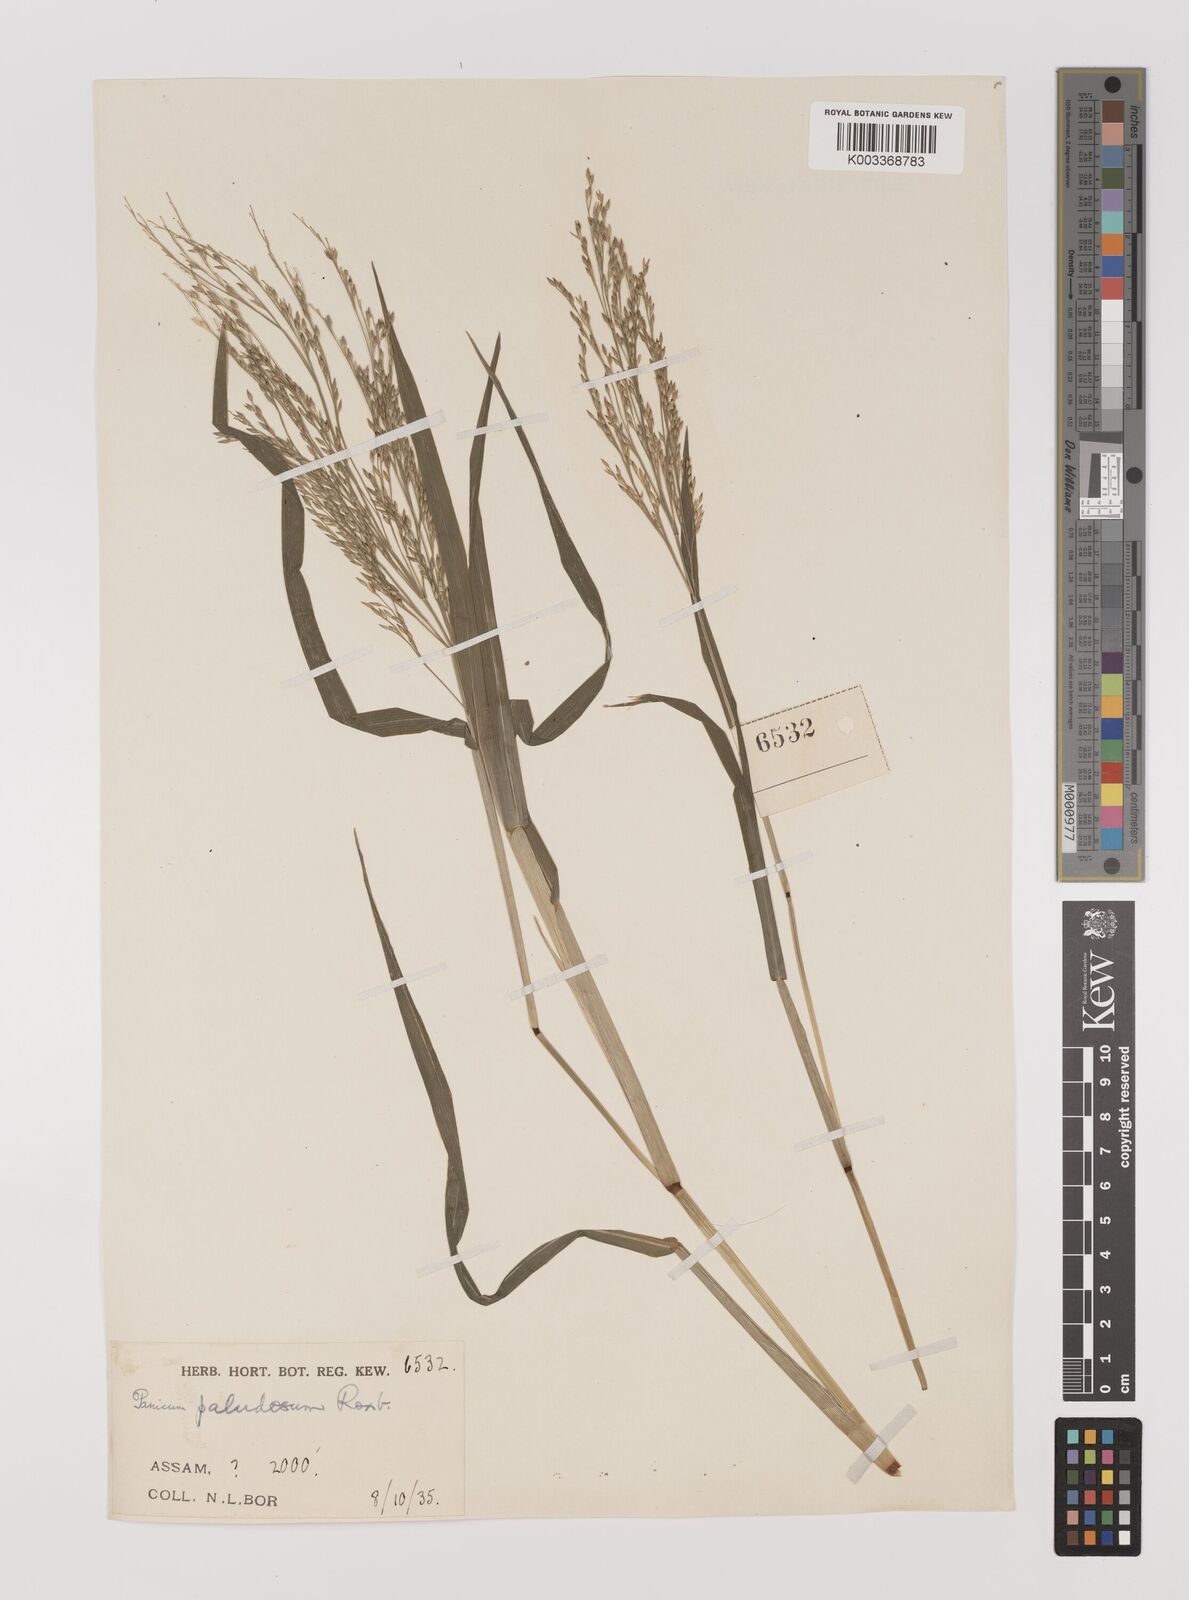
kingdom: Plantae
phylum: Tracheophyta
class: Liliopsida
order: Poales
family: Poaceae
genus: Louisiella
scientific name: Louisiella paludosa
